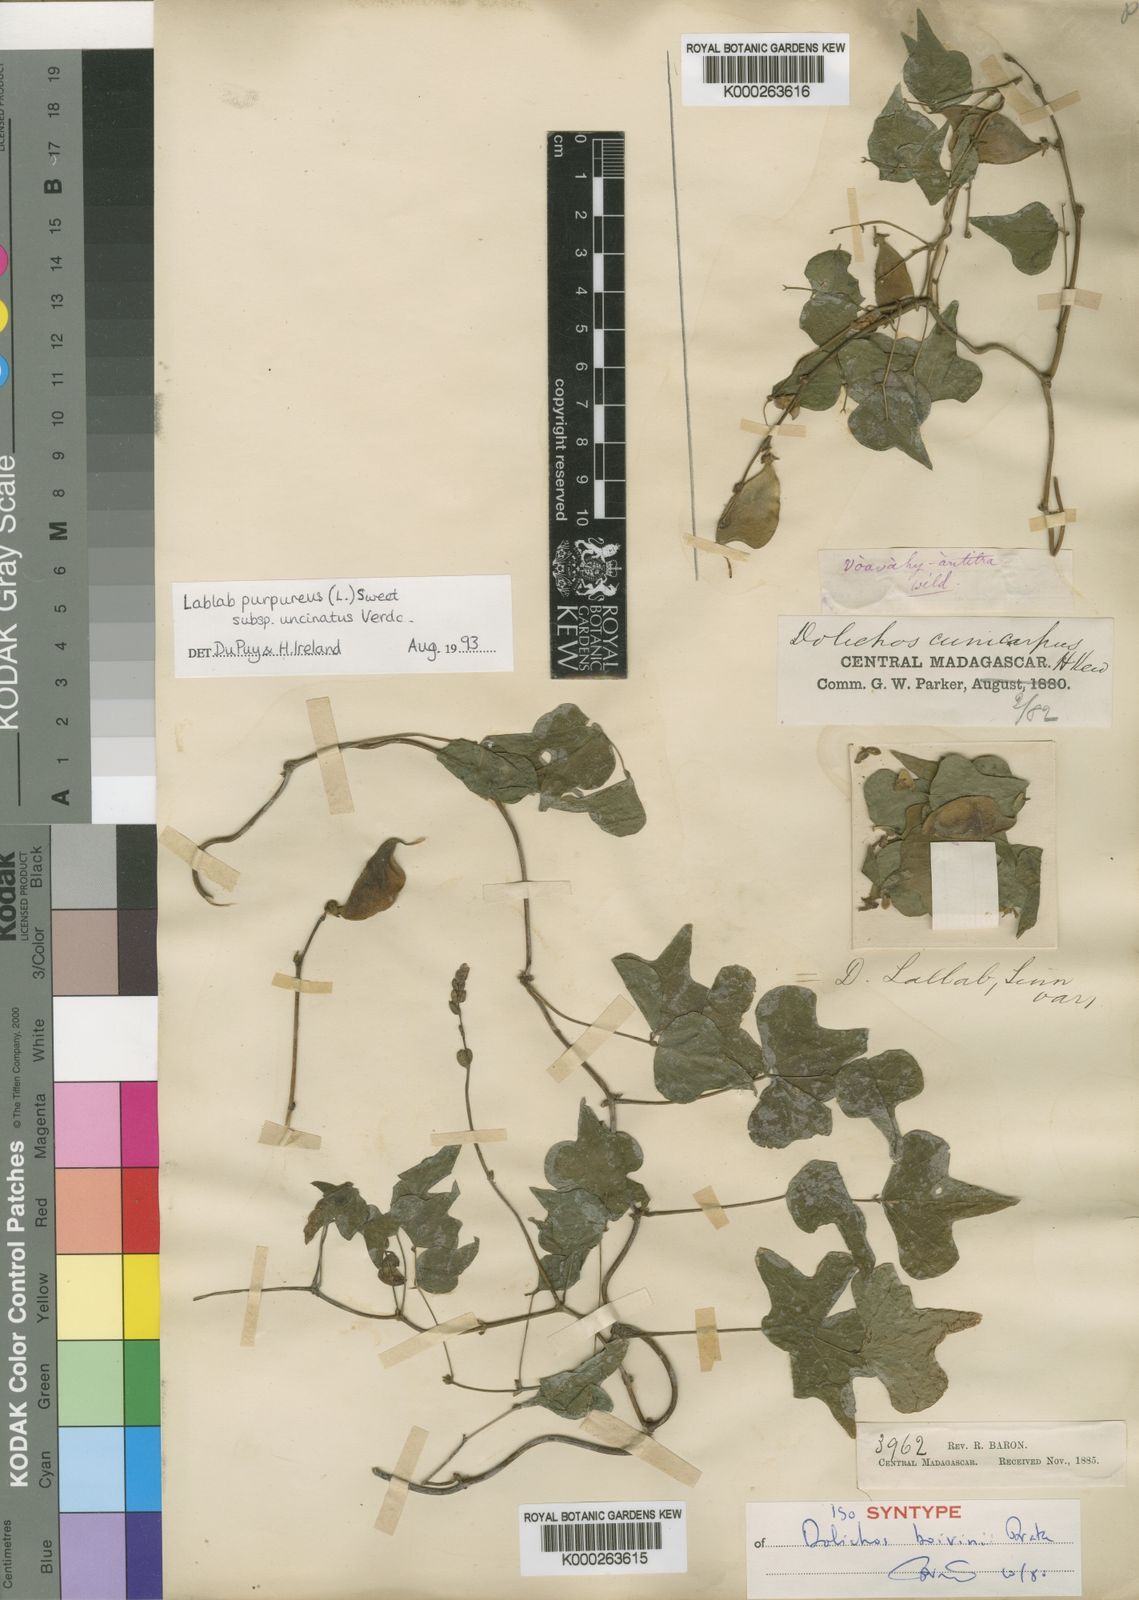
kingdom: Plantae
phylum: Tracheophyta
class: Magnoliopsida
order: Fabales
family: Fabaceae
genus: Lablab
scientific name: Lablab purpureus
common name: Lablab-bean
